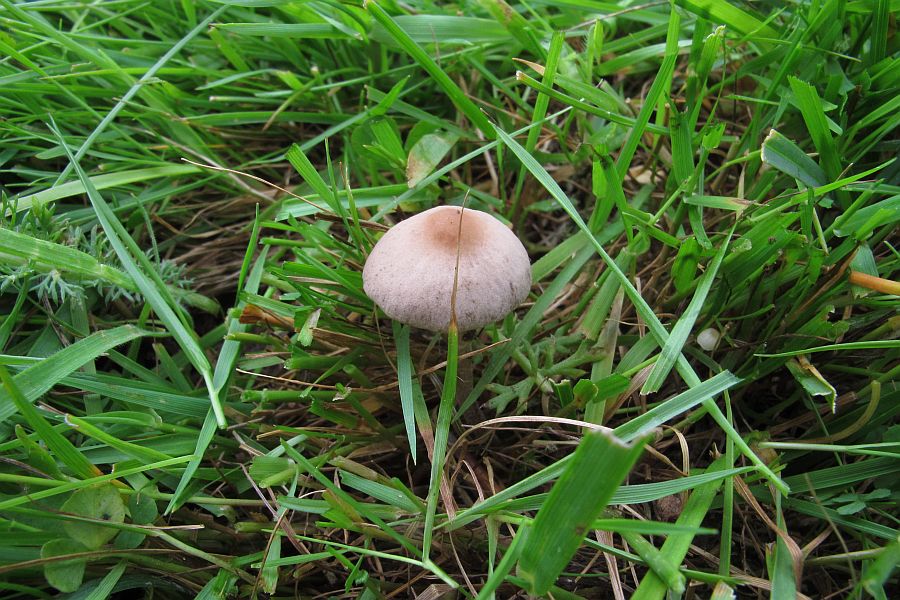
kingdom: Fungi
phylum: Basidiomycota
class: Agaricomycetes
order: Agaricales
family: Bolbitiaceae
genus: Panaeolina
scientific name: Panaeolina foenisecii
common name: høslætsvamp
